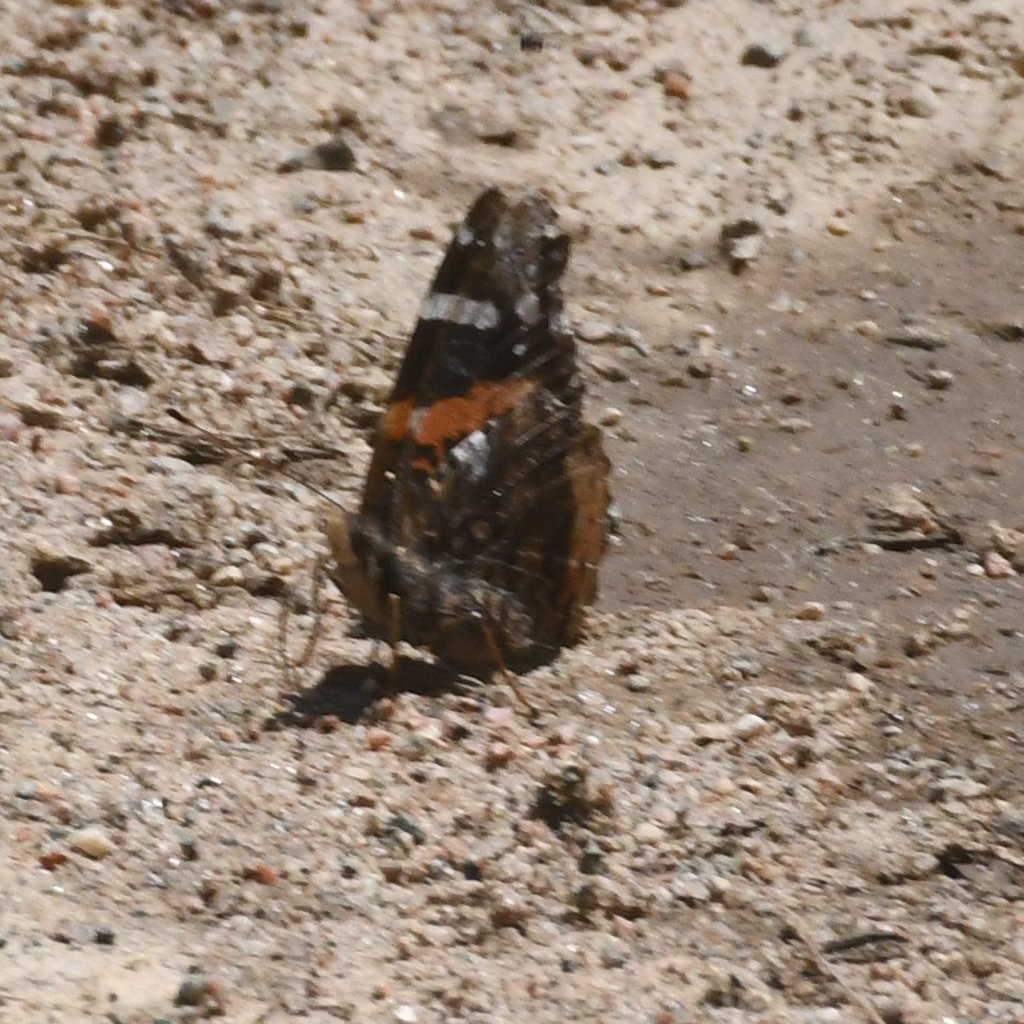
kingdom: Animalia
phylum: Arthropoda
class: Insecta
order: Lepidoptera
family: Nymphalidae
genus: Vanessa
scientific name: Vanessa atalanta
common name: Red Admiral
